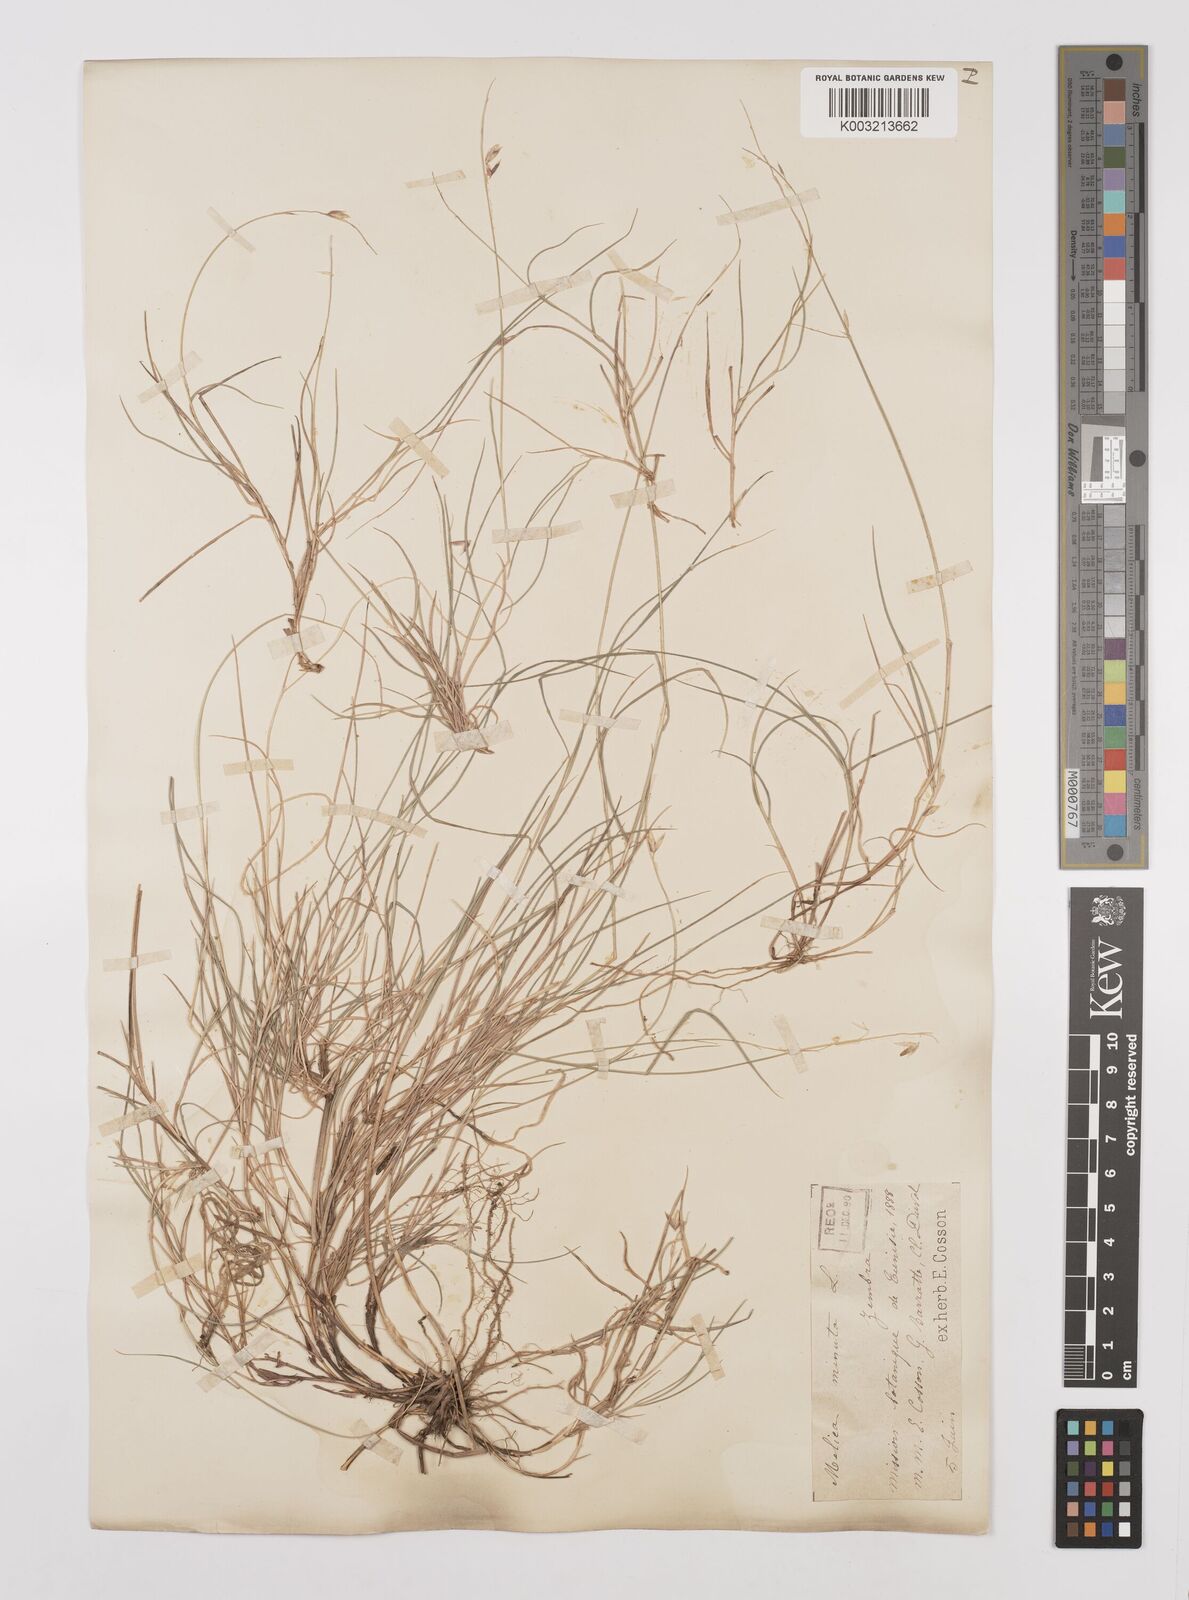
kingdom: Plantae
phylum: Tracheophyta
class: Liliopsida
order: Poales
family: Poaceae
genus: Melica
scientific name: Melica minuta
